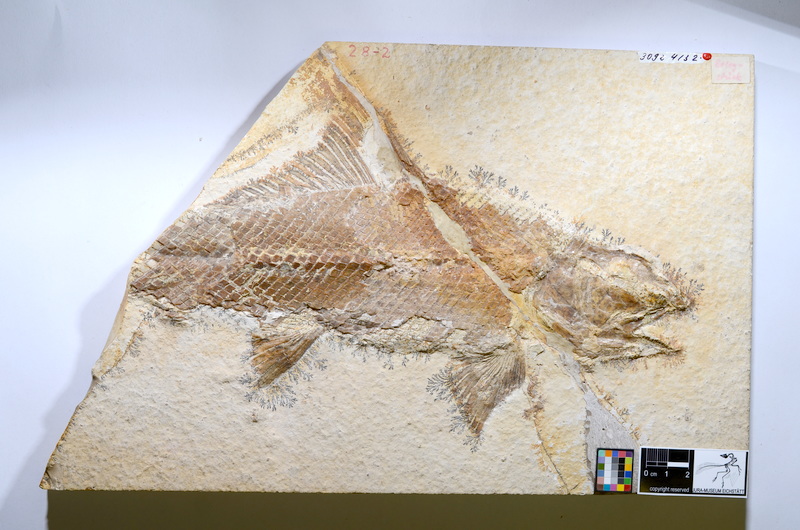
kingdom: Animalia
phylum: Chordata
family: Ophiopsiellidae
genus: Ophiopsiella
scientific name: Ophiopsiella procera
